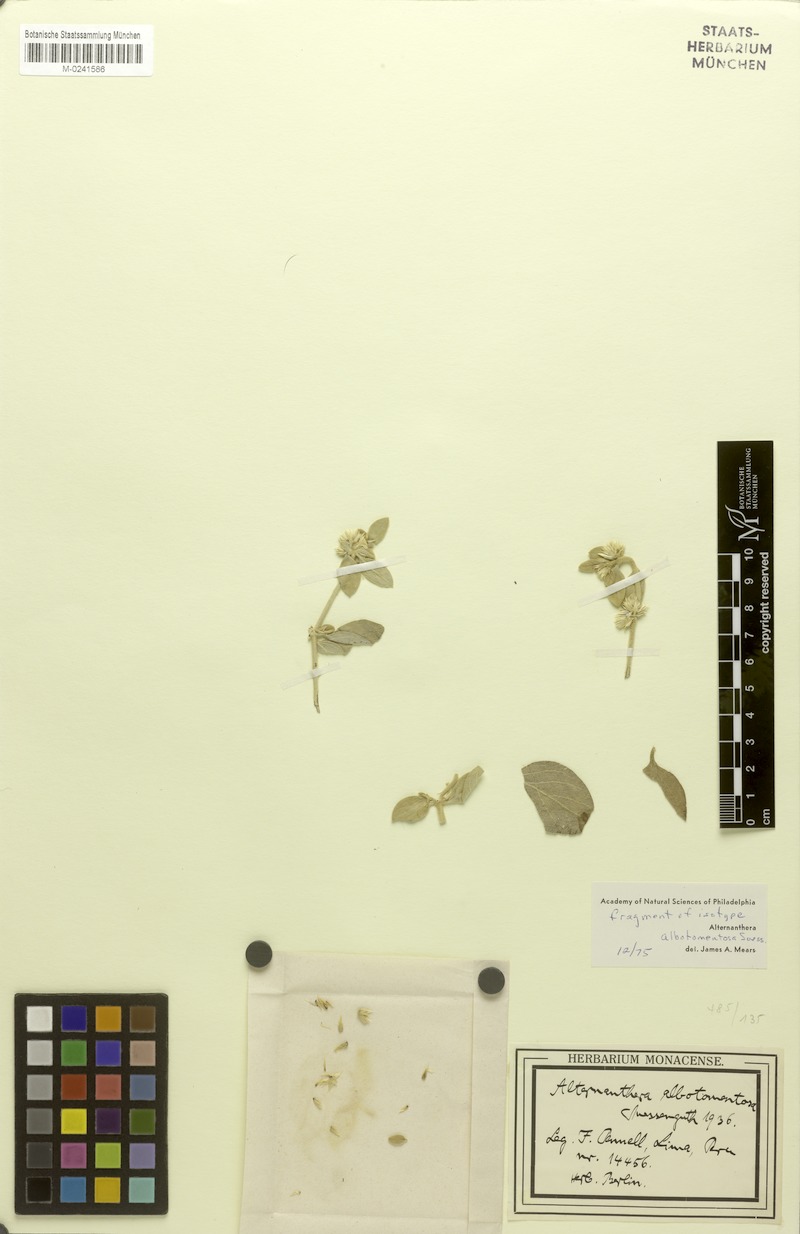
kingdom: Plantae
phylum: Tracheophyta
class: Magnoliopsida
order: Caryophyllales
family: Amaranthaceae
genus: Alternanthera
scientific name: Alternanthera albotomentosa
